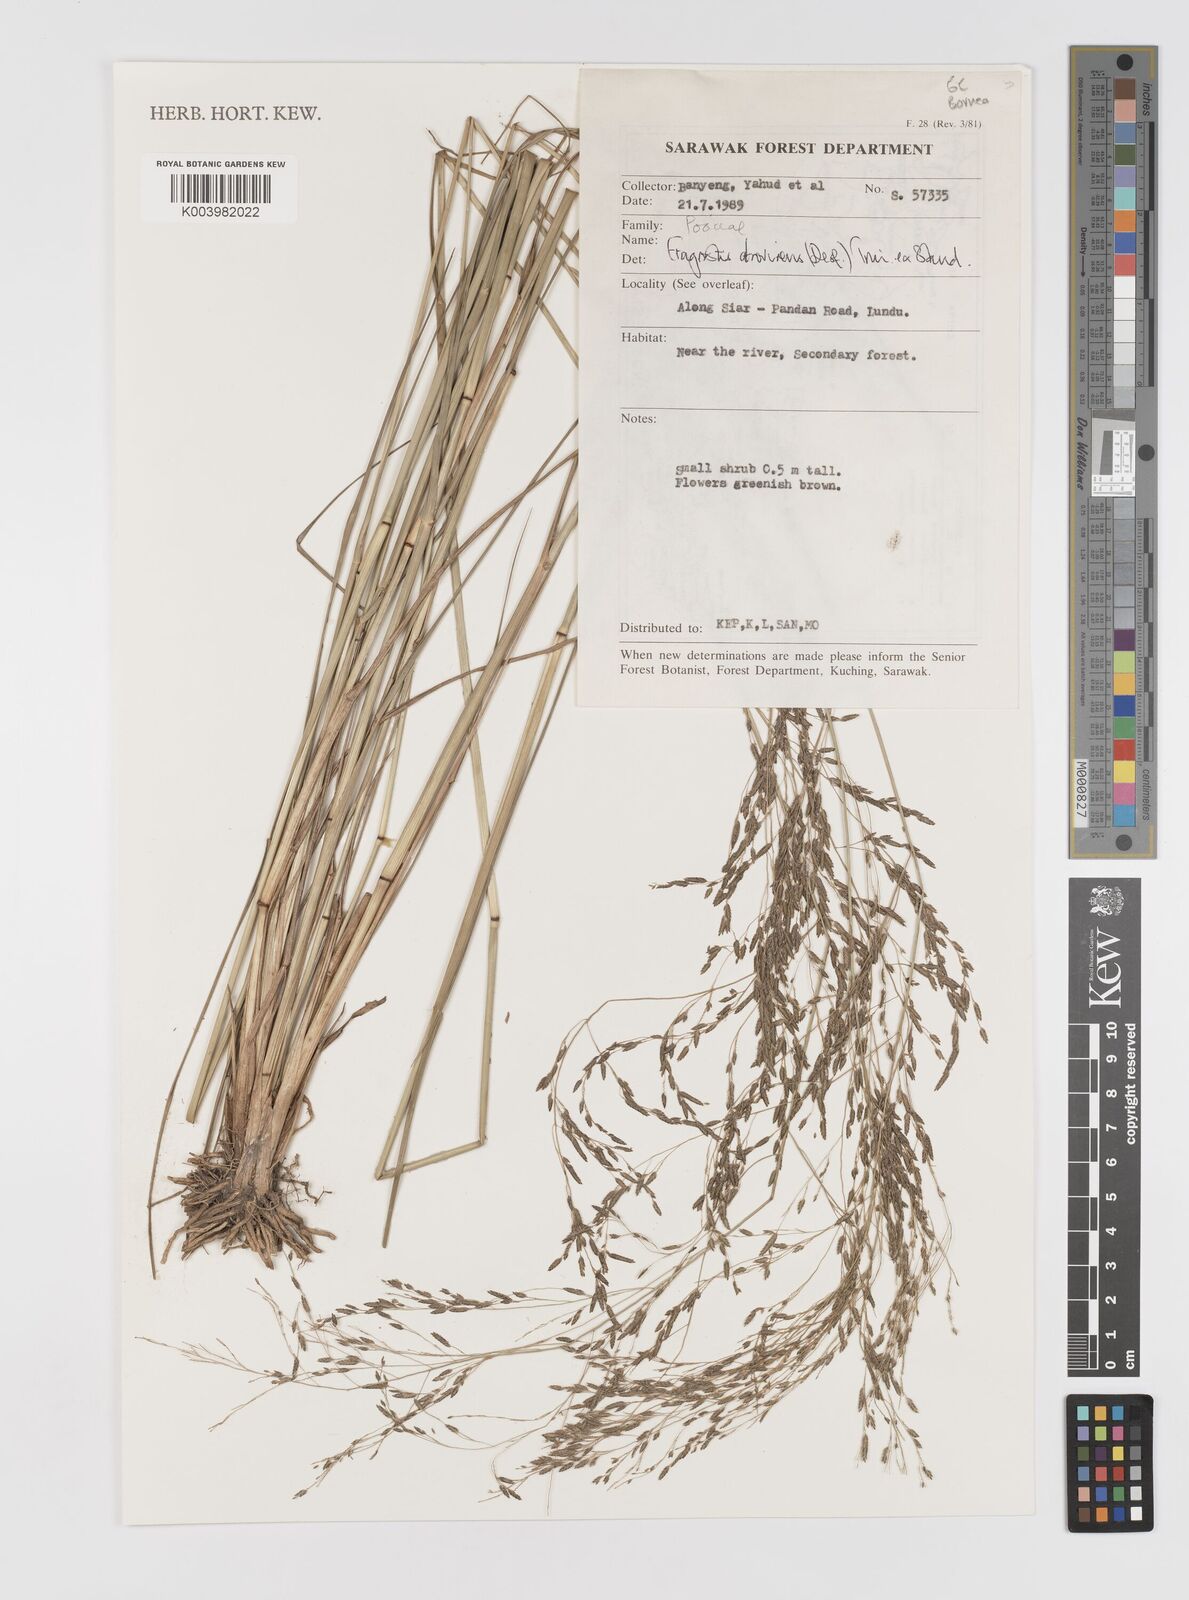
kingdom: Plantae
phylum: Tracheophyta
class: Liliopsida
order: Poales
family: Poaceae
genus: Eragrostis
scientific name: Eragrostis atrovirens
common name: Thalia lovegrass
